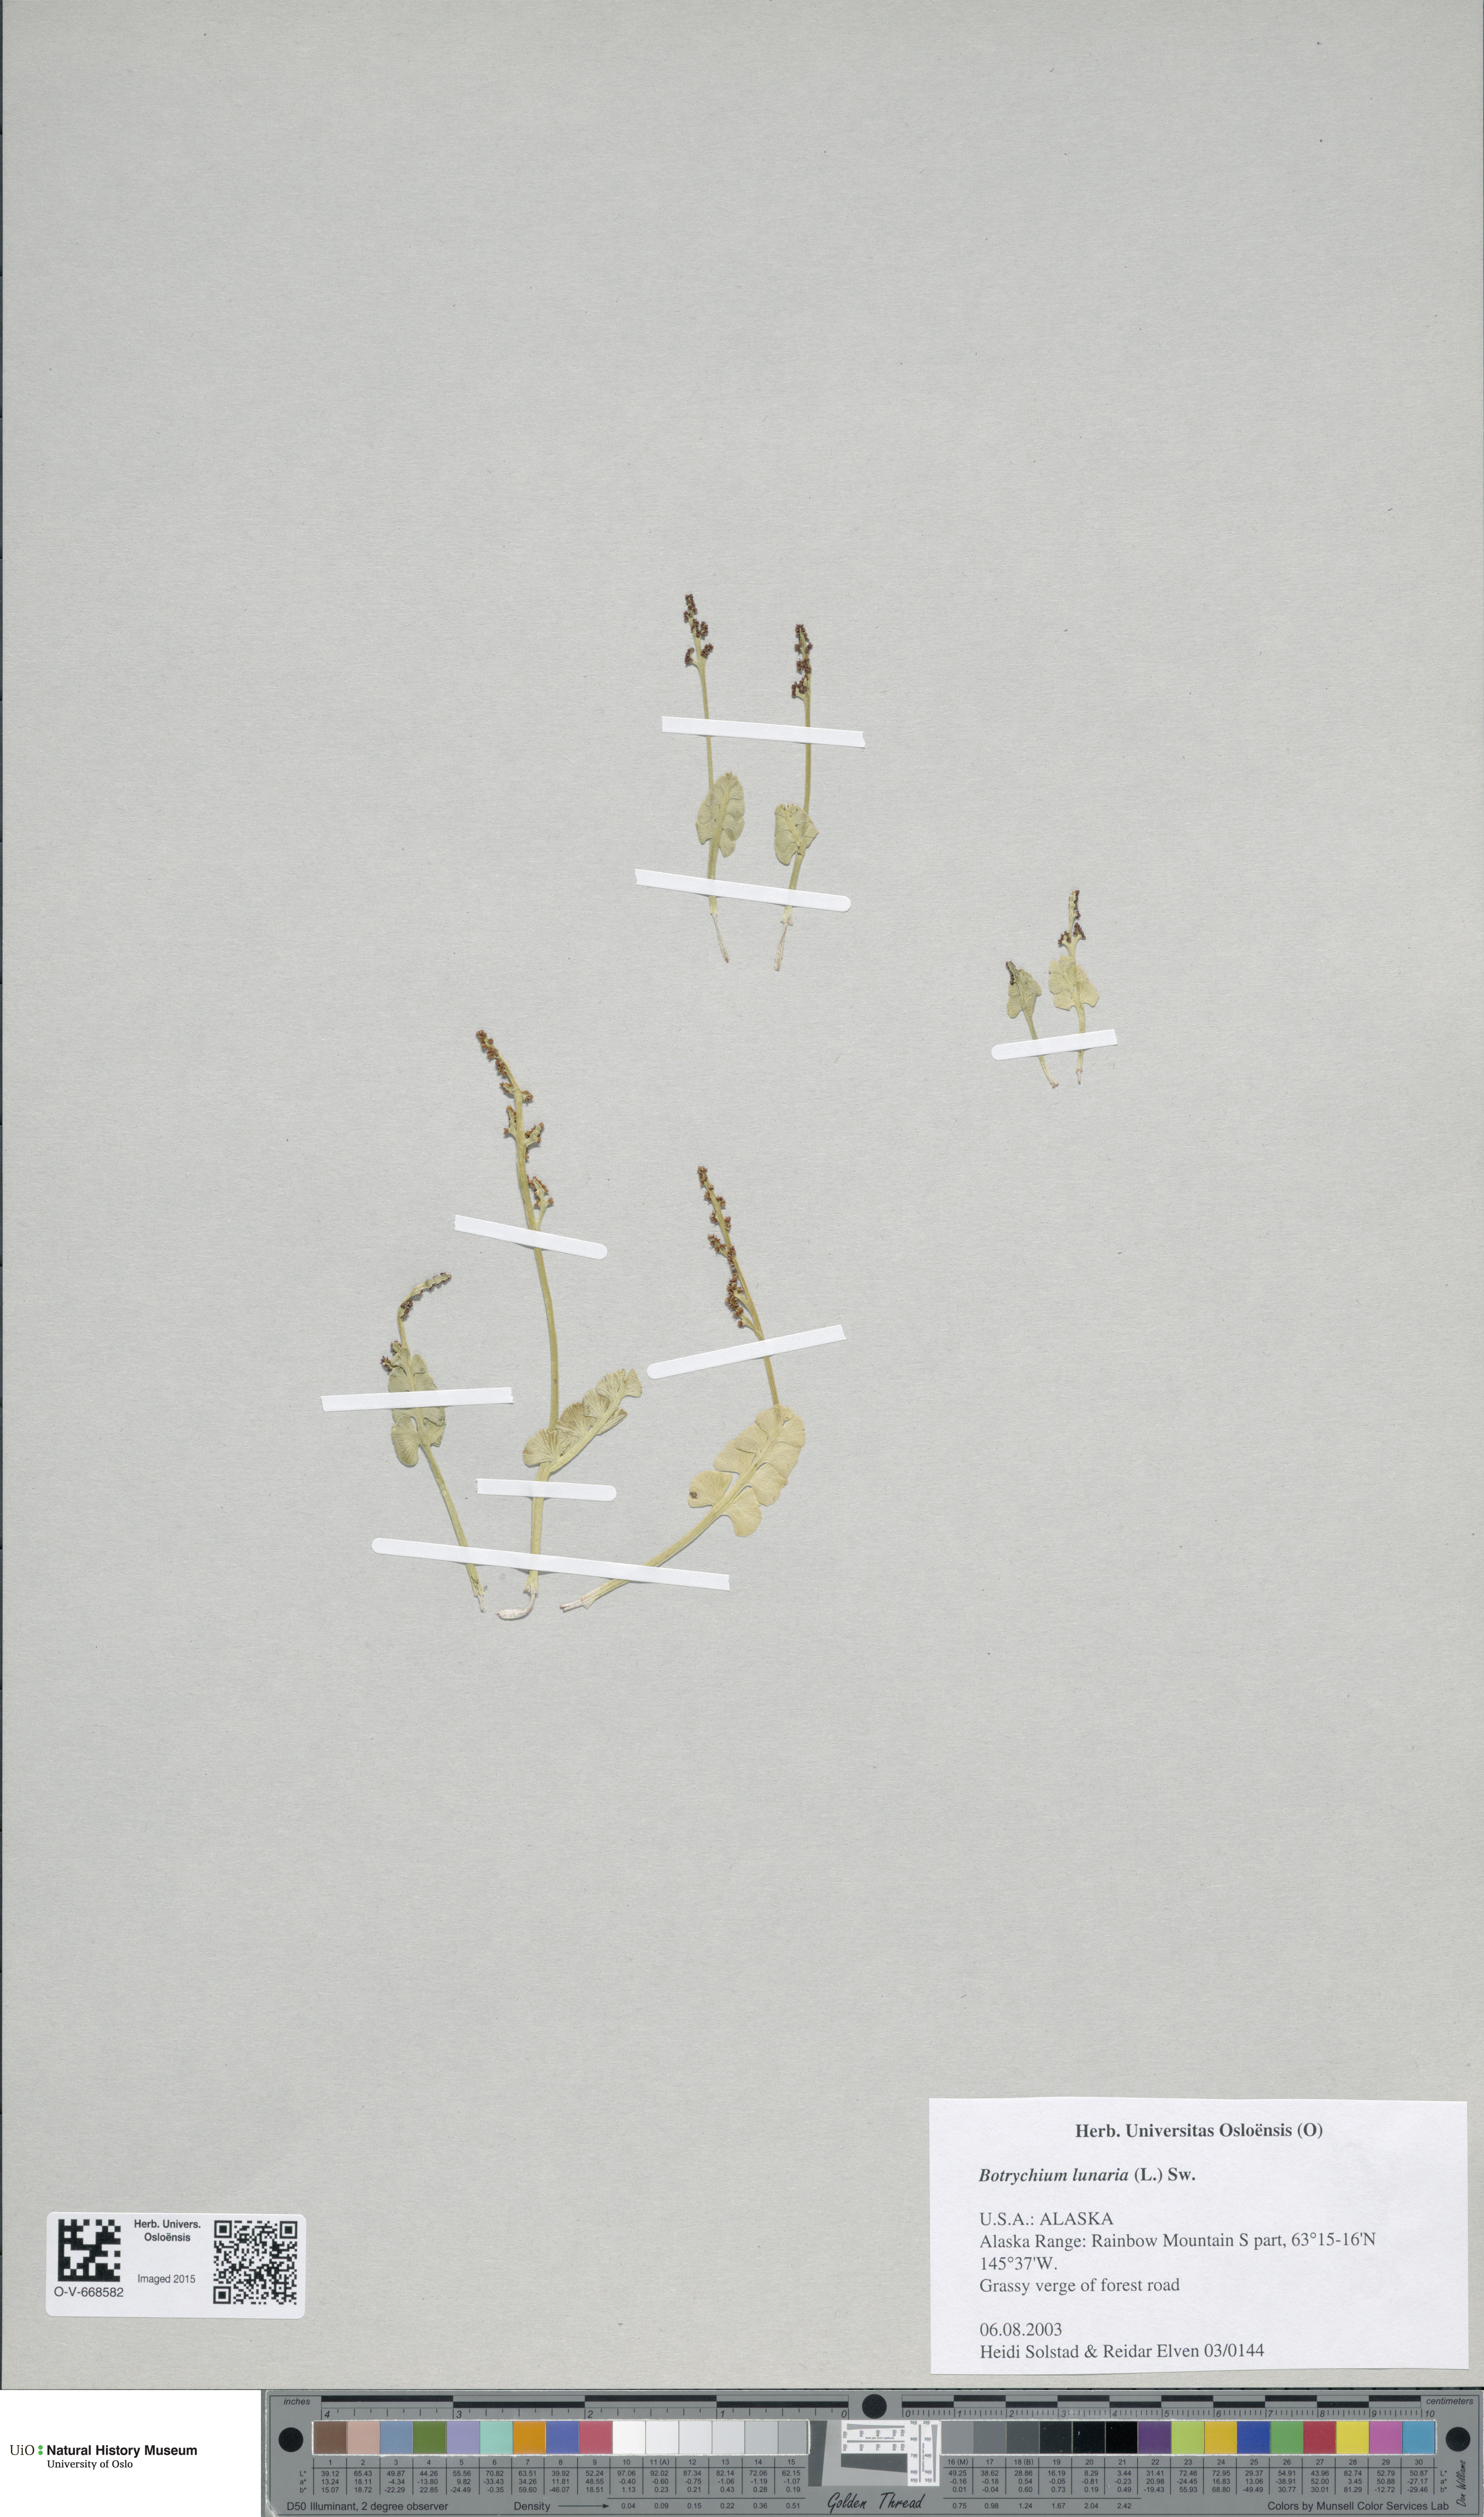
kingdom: Plantae
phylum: Tracheophyta
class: Polypodiopsida
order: Ophioglossales
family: Ophioglossaceae
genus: Botrychium
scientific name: Botrychium lunaria
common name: Moonwort
